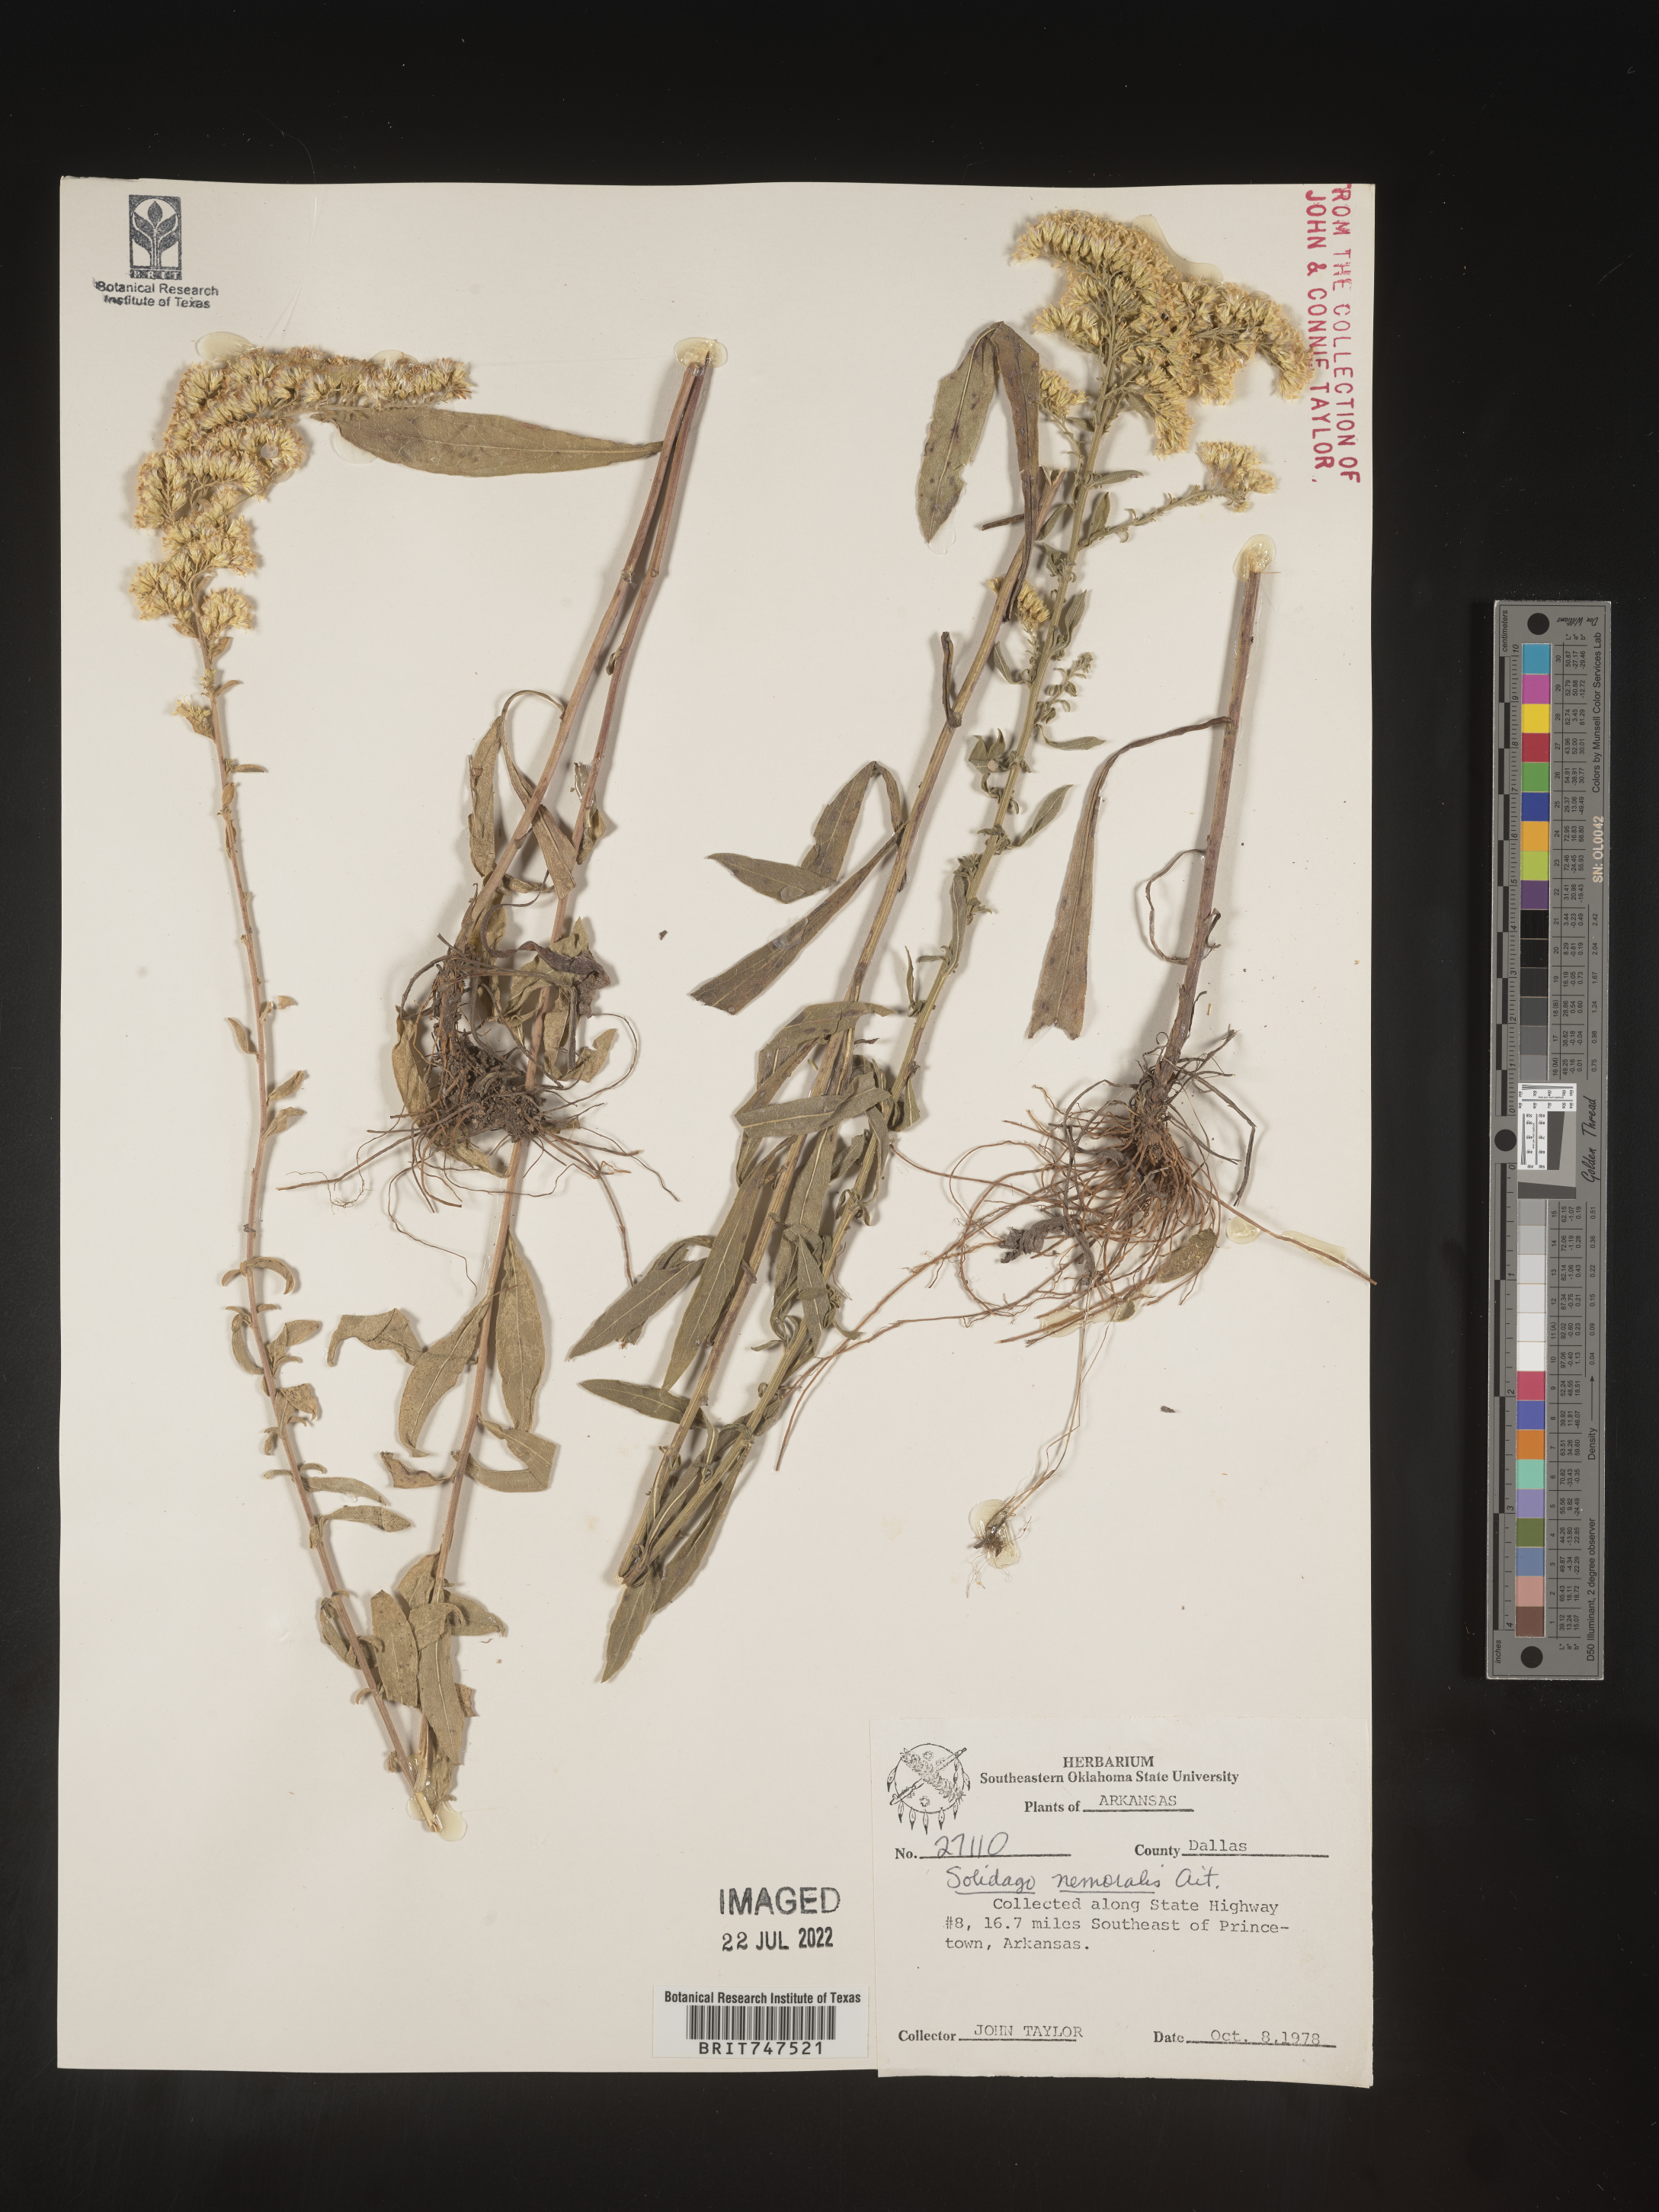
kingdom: Plantae
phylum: Tracheophyta
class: Magnoliopsida
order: Asterales
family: Asteraceae
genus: Solidago
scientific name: Solidago nemoralis
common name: Grey goldenrod
